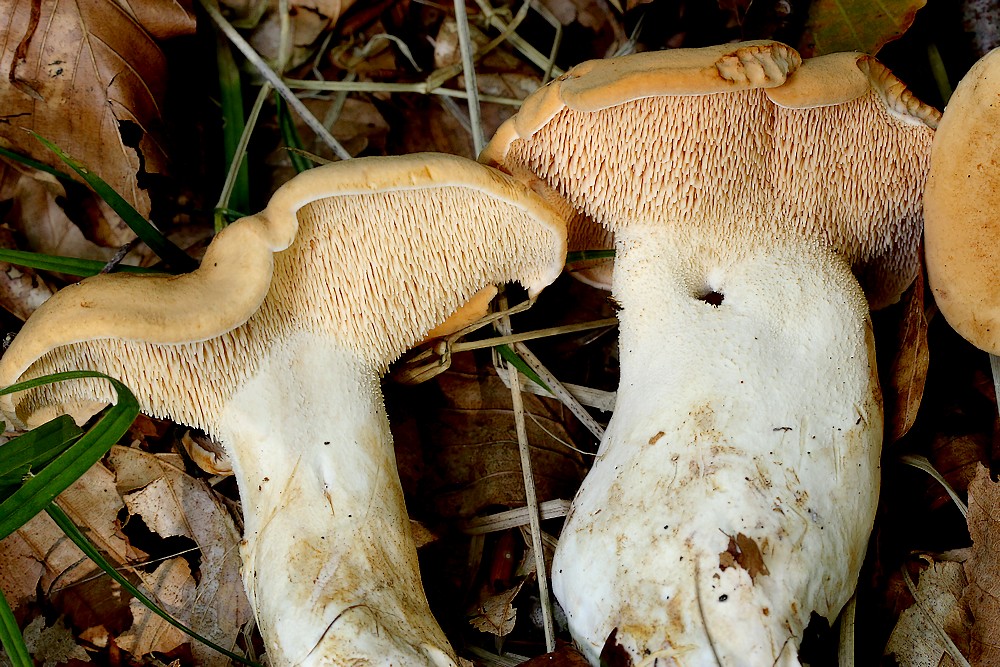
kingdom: Fungi
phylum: Basidiomycota
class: Agaricomycetes
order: Cantharellales
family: Hydnaceae
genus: Hydnum
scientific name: Hydnum
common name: pigsvamp
